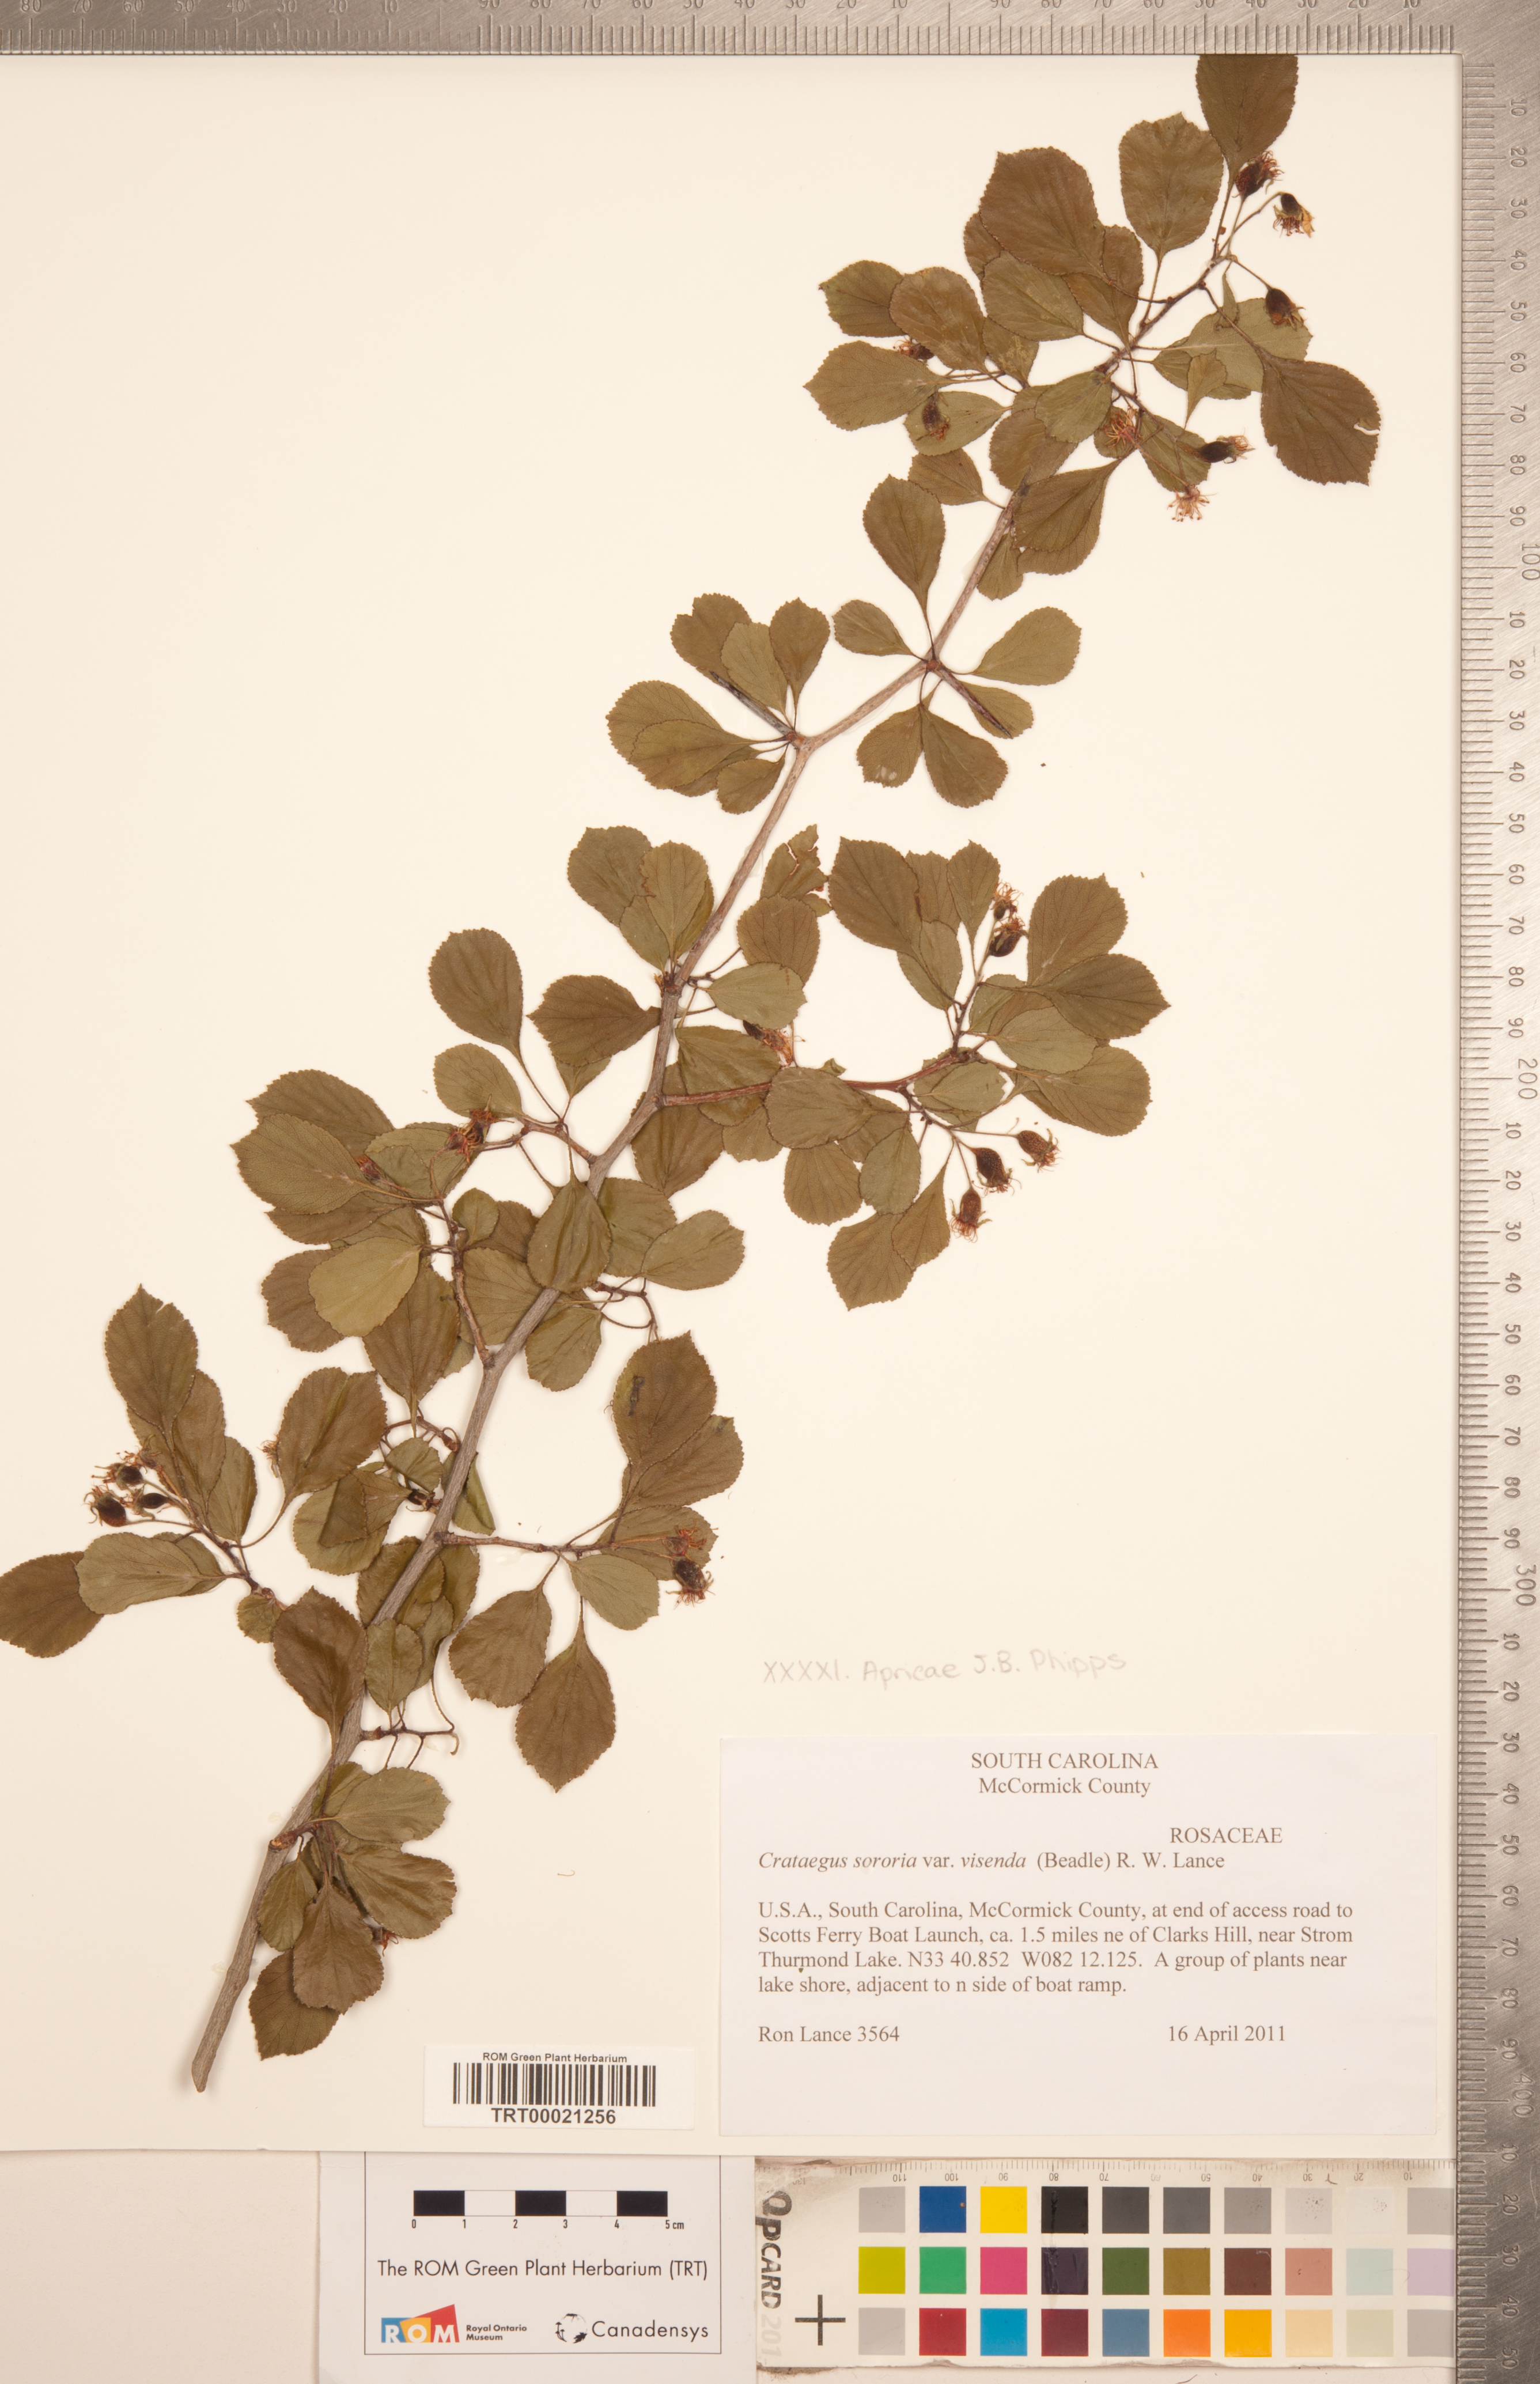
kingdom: Plantae
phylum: Tracheophyta
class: Magnoliopsida
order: Rosales
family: Rosaceae
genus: Crataegus
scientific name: Crataegus sororia
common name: Sister hawthorn
